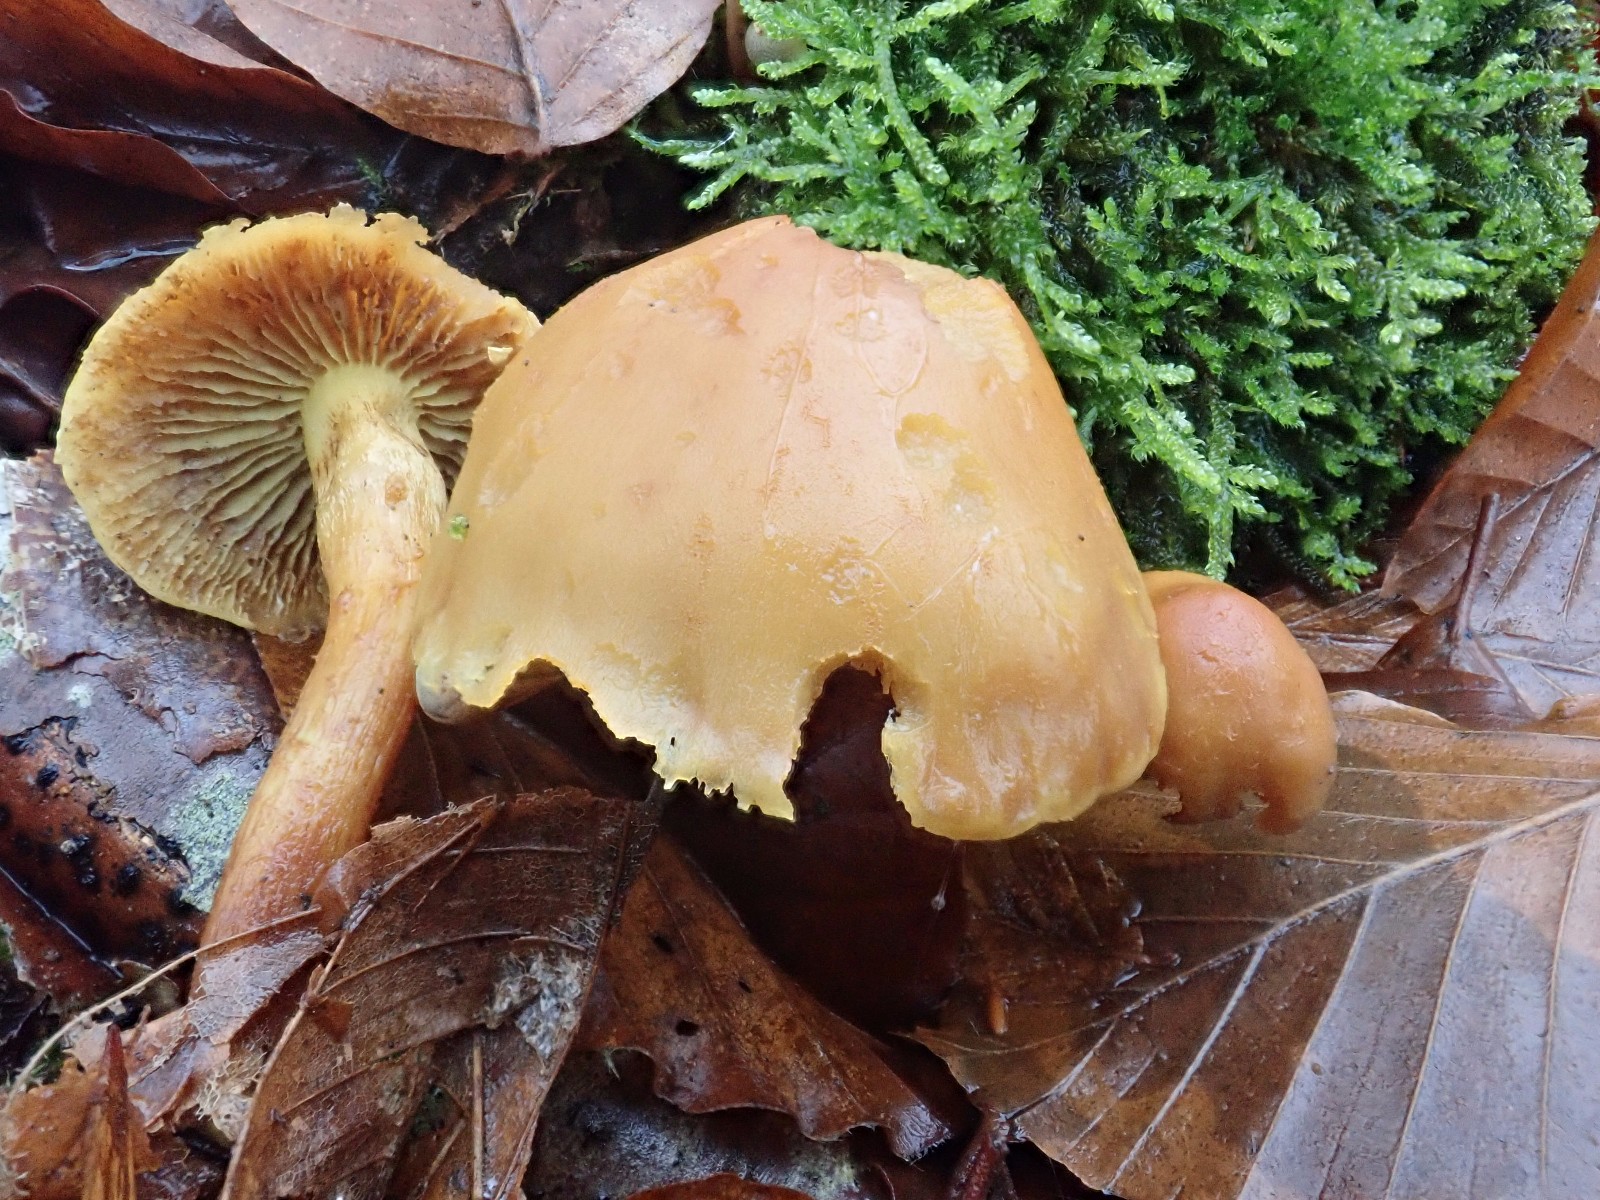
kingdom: Fungi
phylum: Basidiomycota
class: Agaricomycetes
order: Agaricales
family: Strophariaceae
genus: Hypholoma
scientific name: Hypholoma fasciculare
